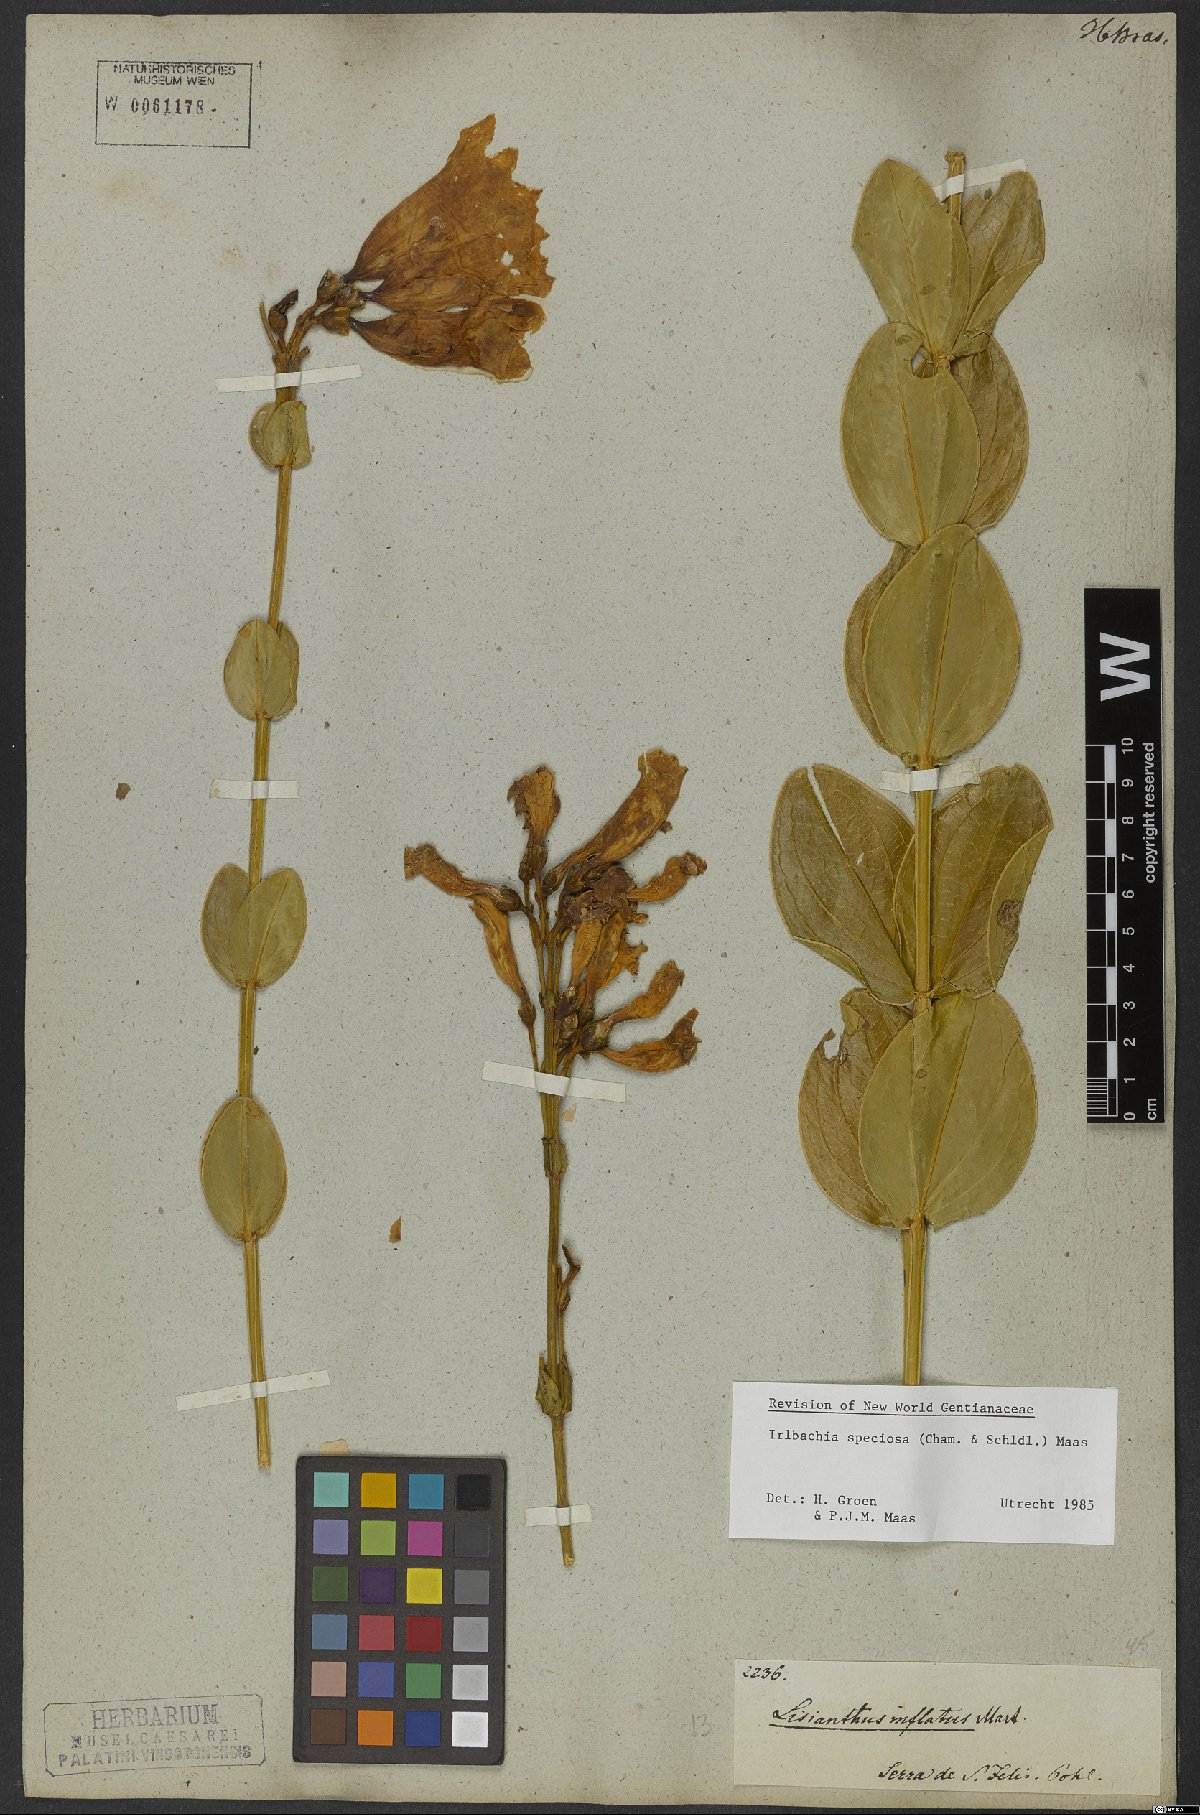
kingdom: Plantae
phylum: Tracheophyta
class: Magnoliopsida
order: Gentianales
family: Gentianaceae
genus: Calolisianthus
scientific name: Calolisianthus speciosus
